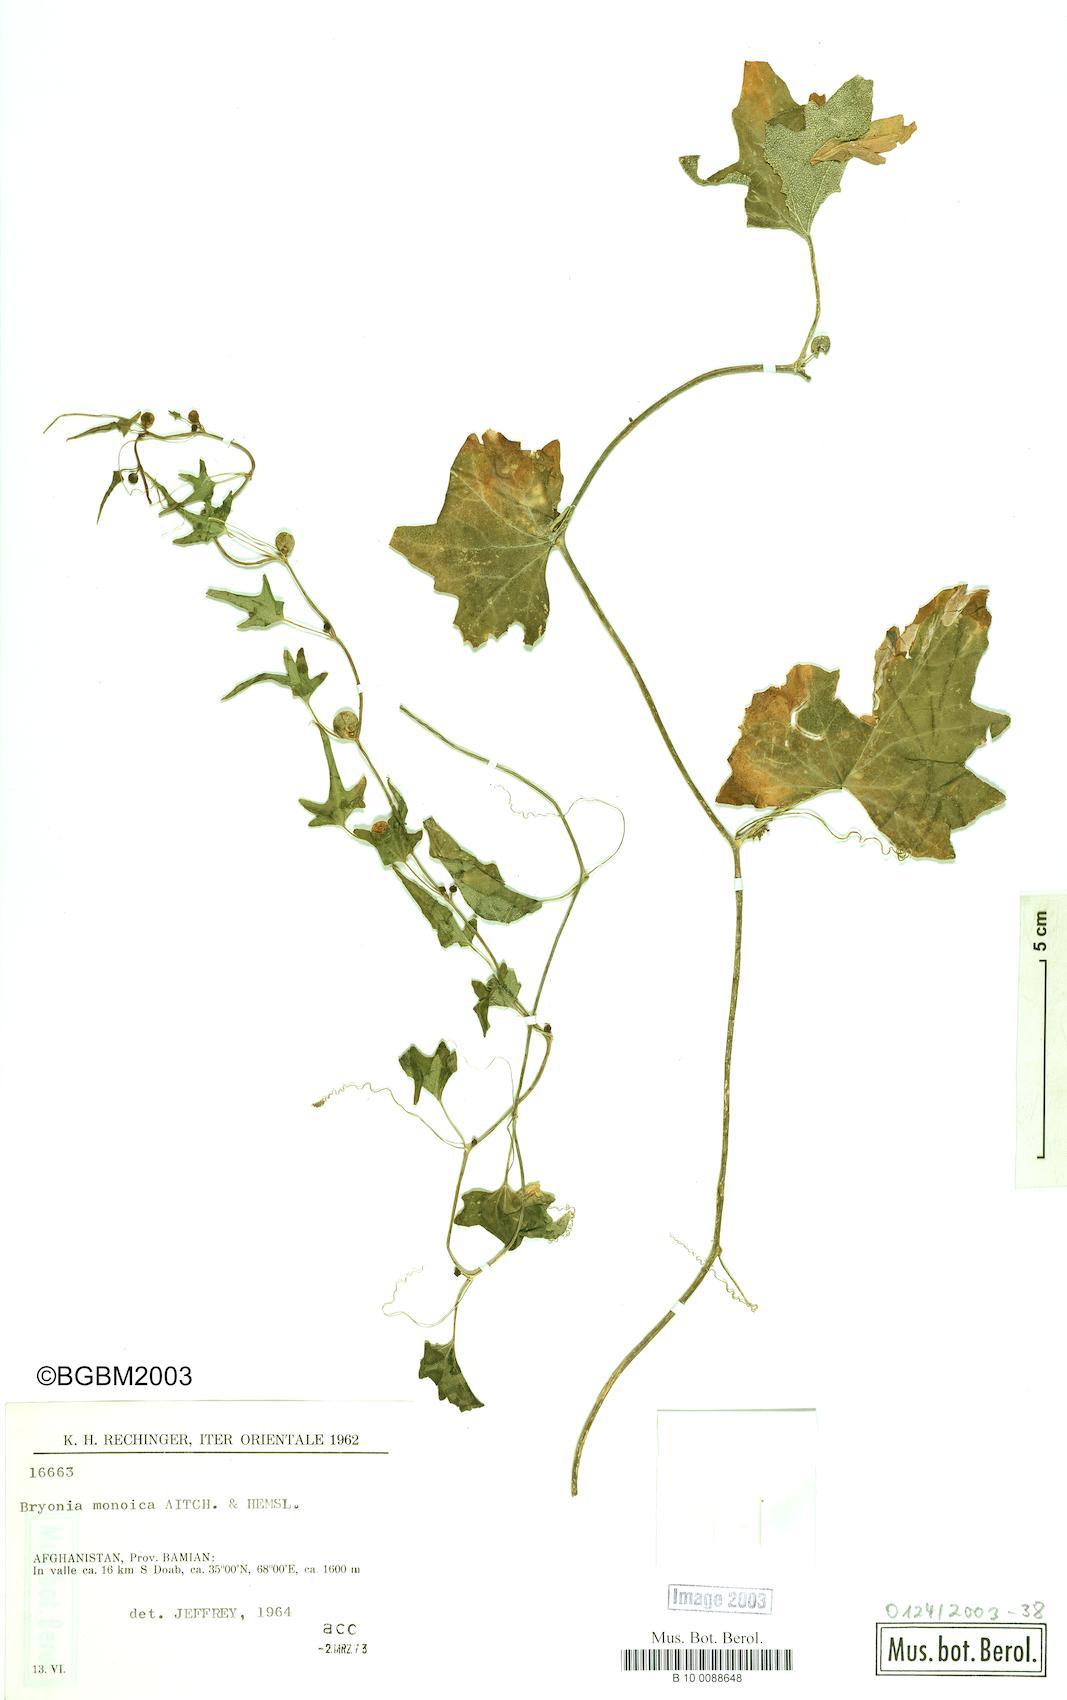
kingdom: Plantae
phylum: Tracheophyta
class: Magnoliopsida
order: Cucurbitales
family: Cucurbitaceae
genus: Bryonia
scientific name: Bryonia monoica
